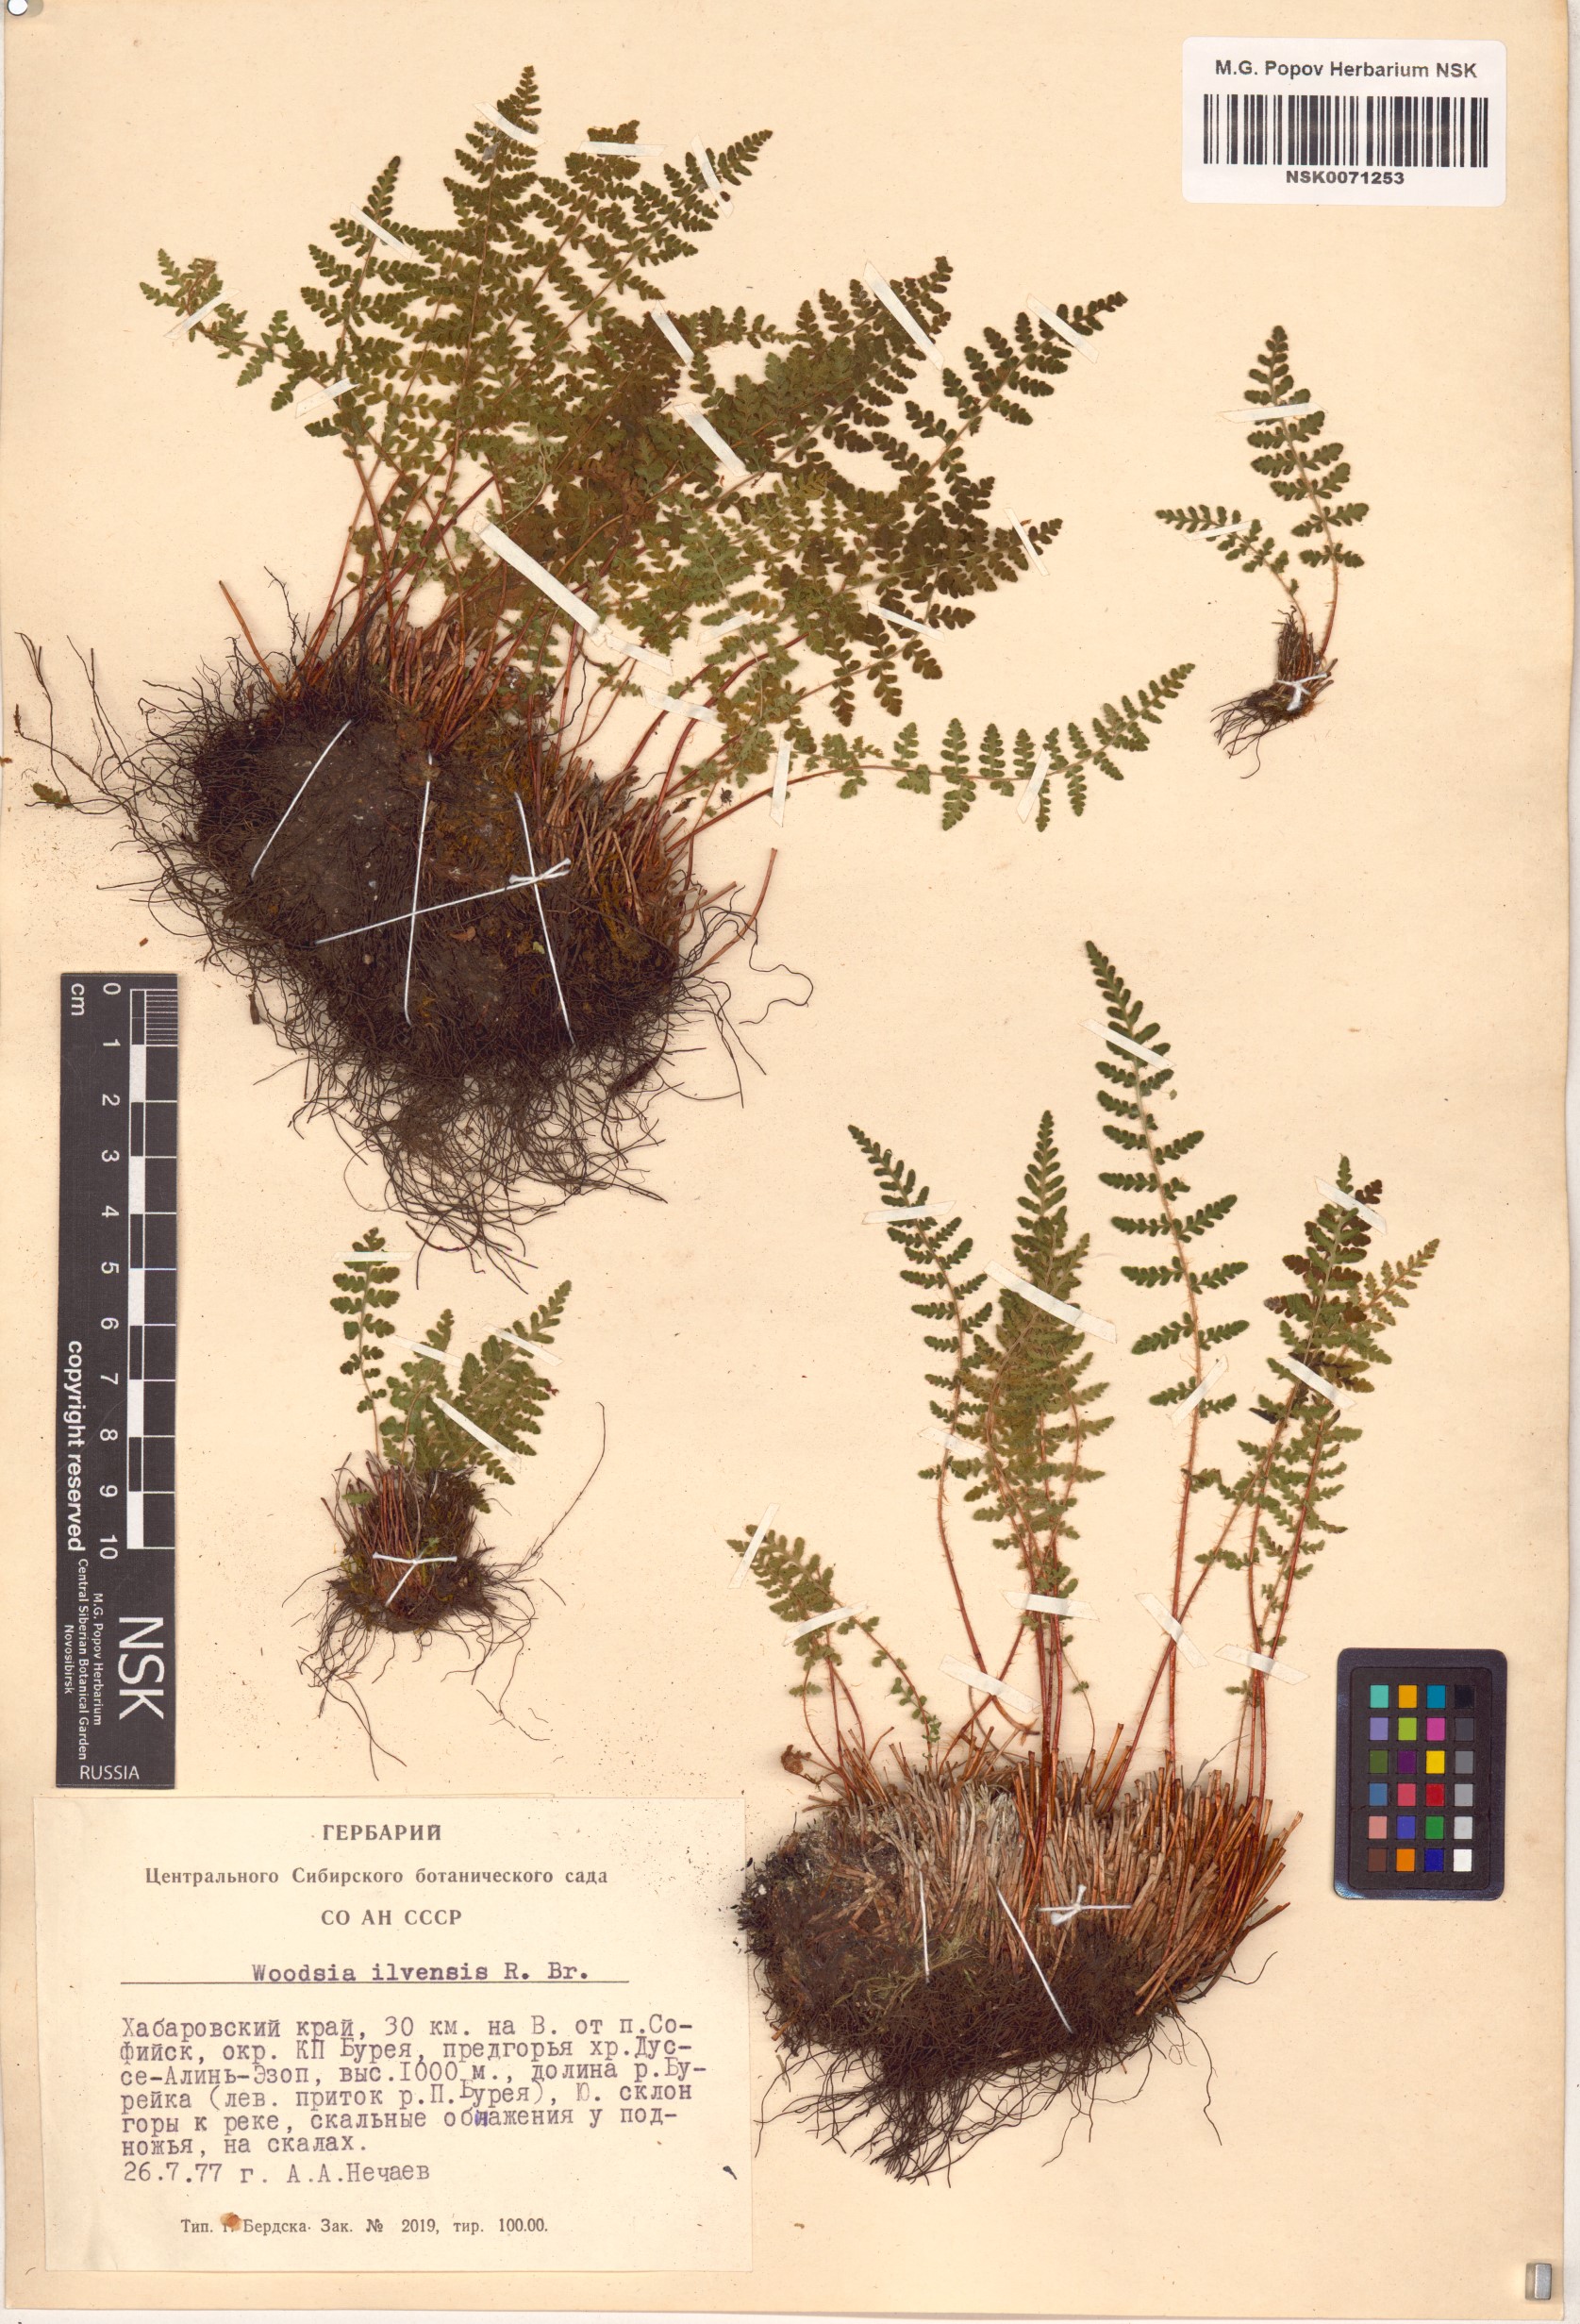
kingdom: Plantae
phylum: Tracheophyta
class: Polypodiopsida
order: Polypodiales
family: Woodsiaceae
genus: Woodsia
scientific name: Woodsia ilvensis
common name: Fragrant woodsia
